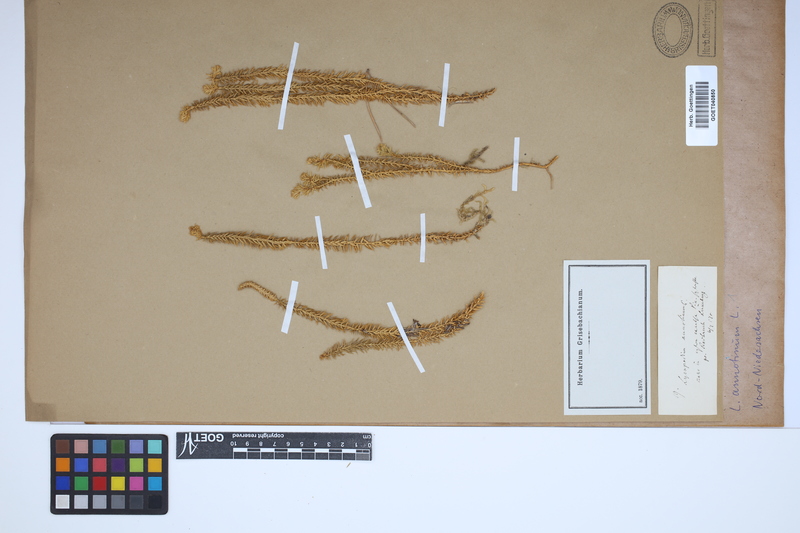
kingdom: Plantae
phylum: Tracheophyta
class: Lycopodiopsida
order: Lycopodiales
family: Lycopodiaceae
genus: Spinulum
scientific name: Spinulum annotinum
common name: Interrupted club-moss
